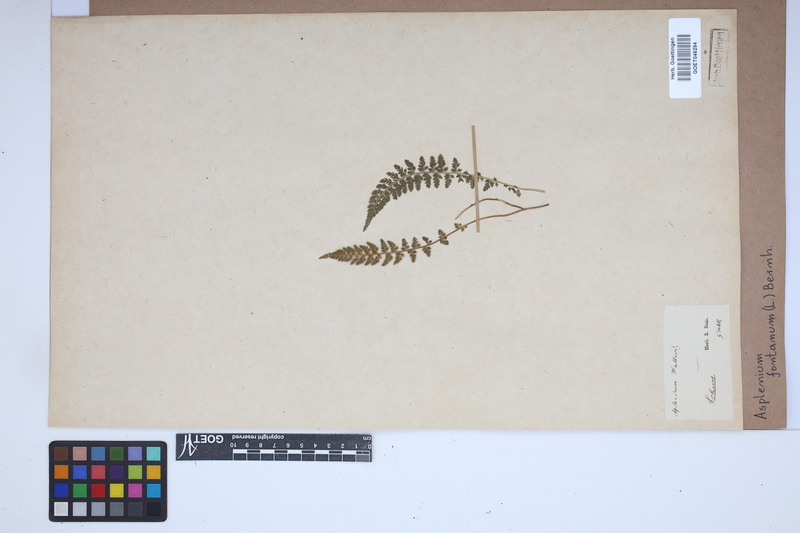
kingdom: Plantae
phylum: Tracheophyta
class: Polypodiopsida
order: Polypodiales
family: Aspleniaceae
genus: Asplenium
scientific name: Asplenium fontanum
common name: Fountain spleenwort
